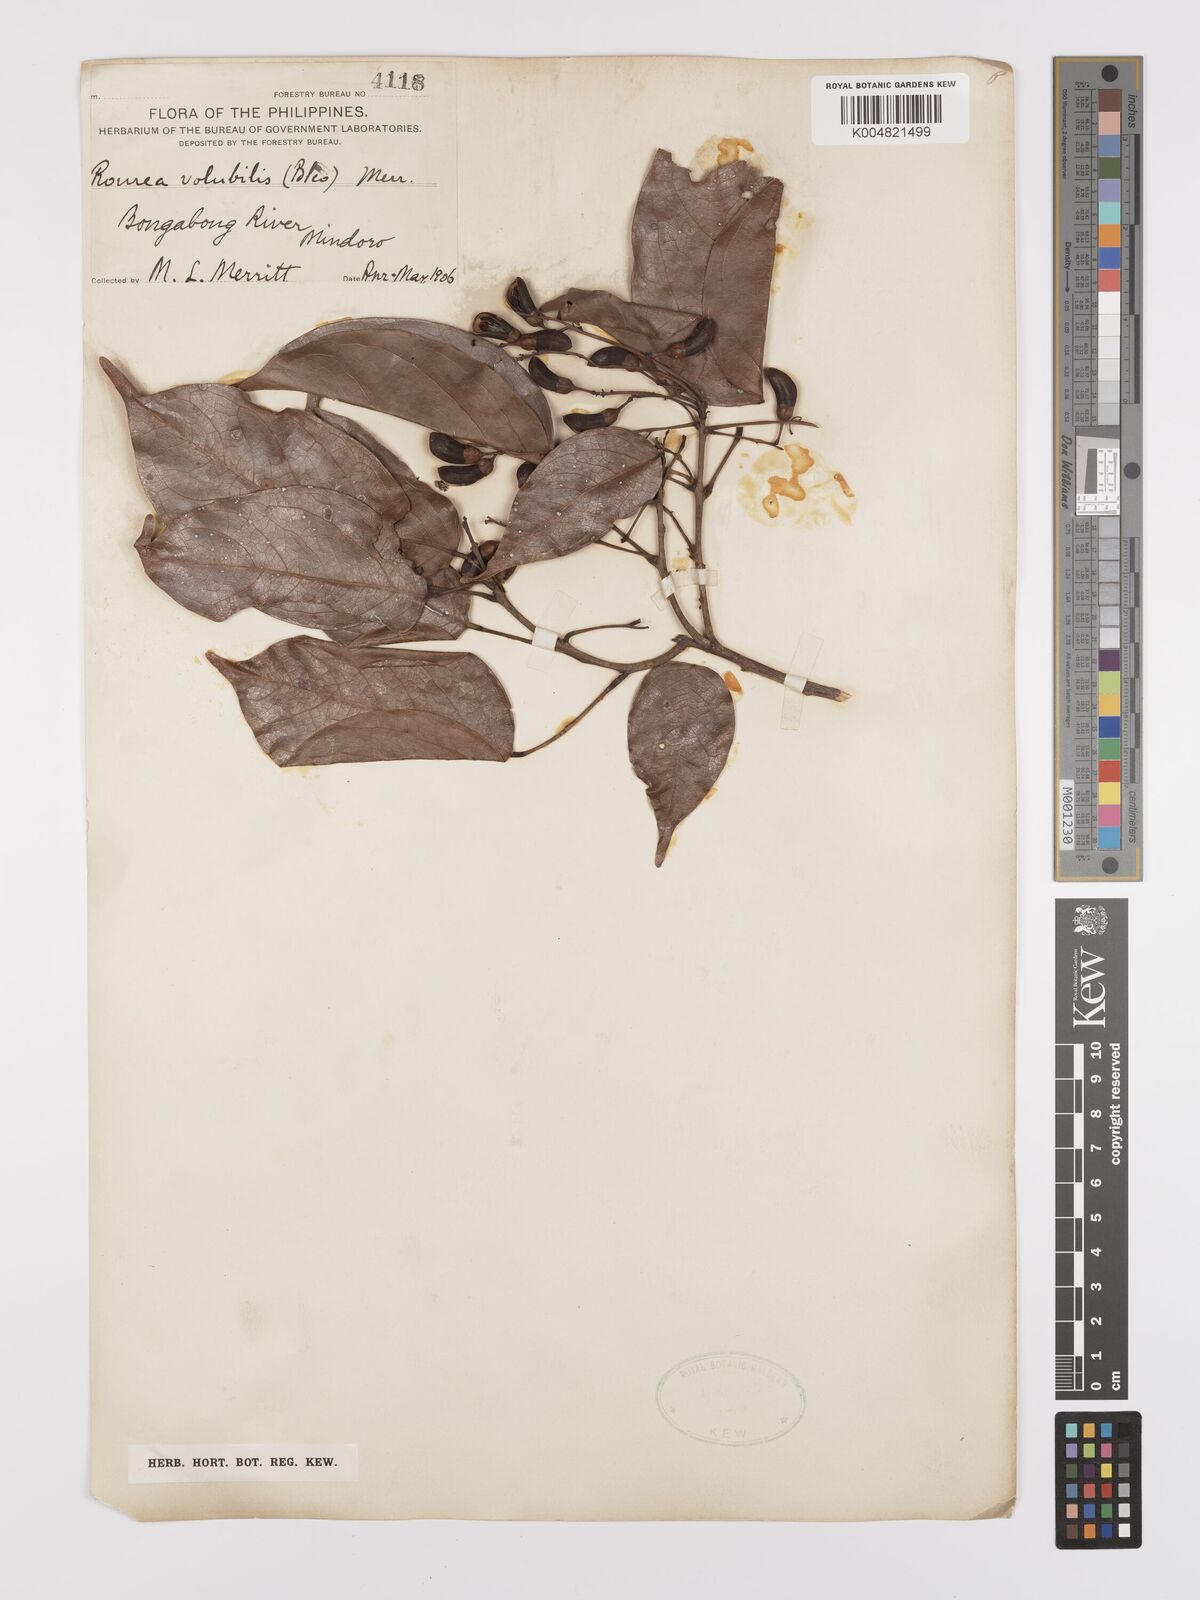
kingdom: Plantae
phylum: Tracheophyta
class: Magnoliopsida
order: Oxalidales
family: Connaraceae
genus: Rourea
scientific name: Rourea minor
